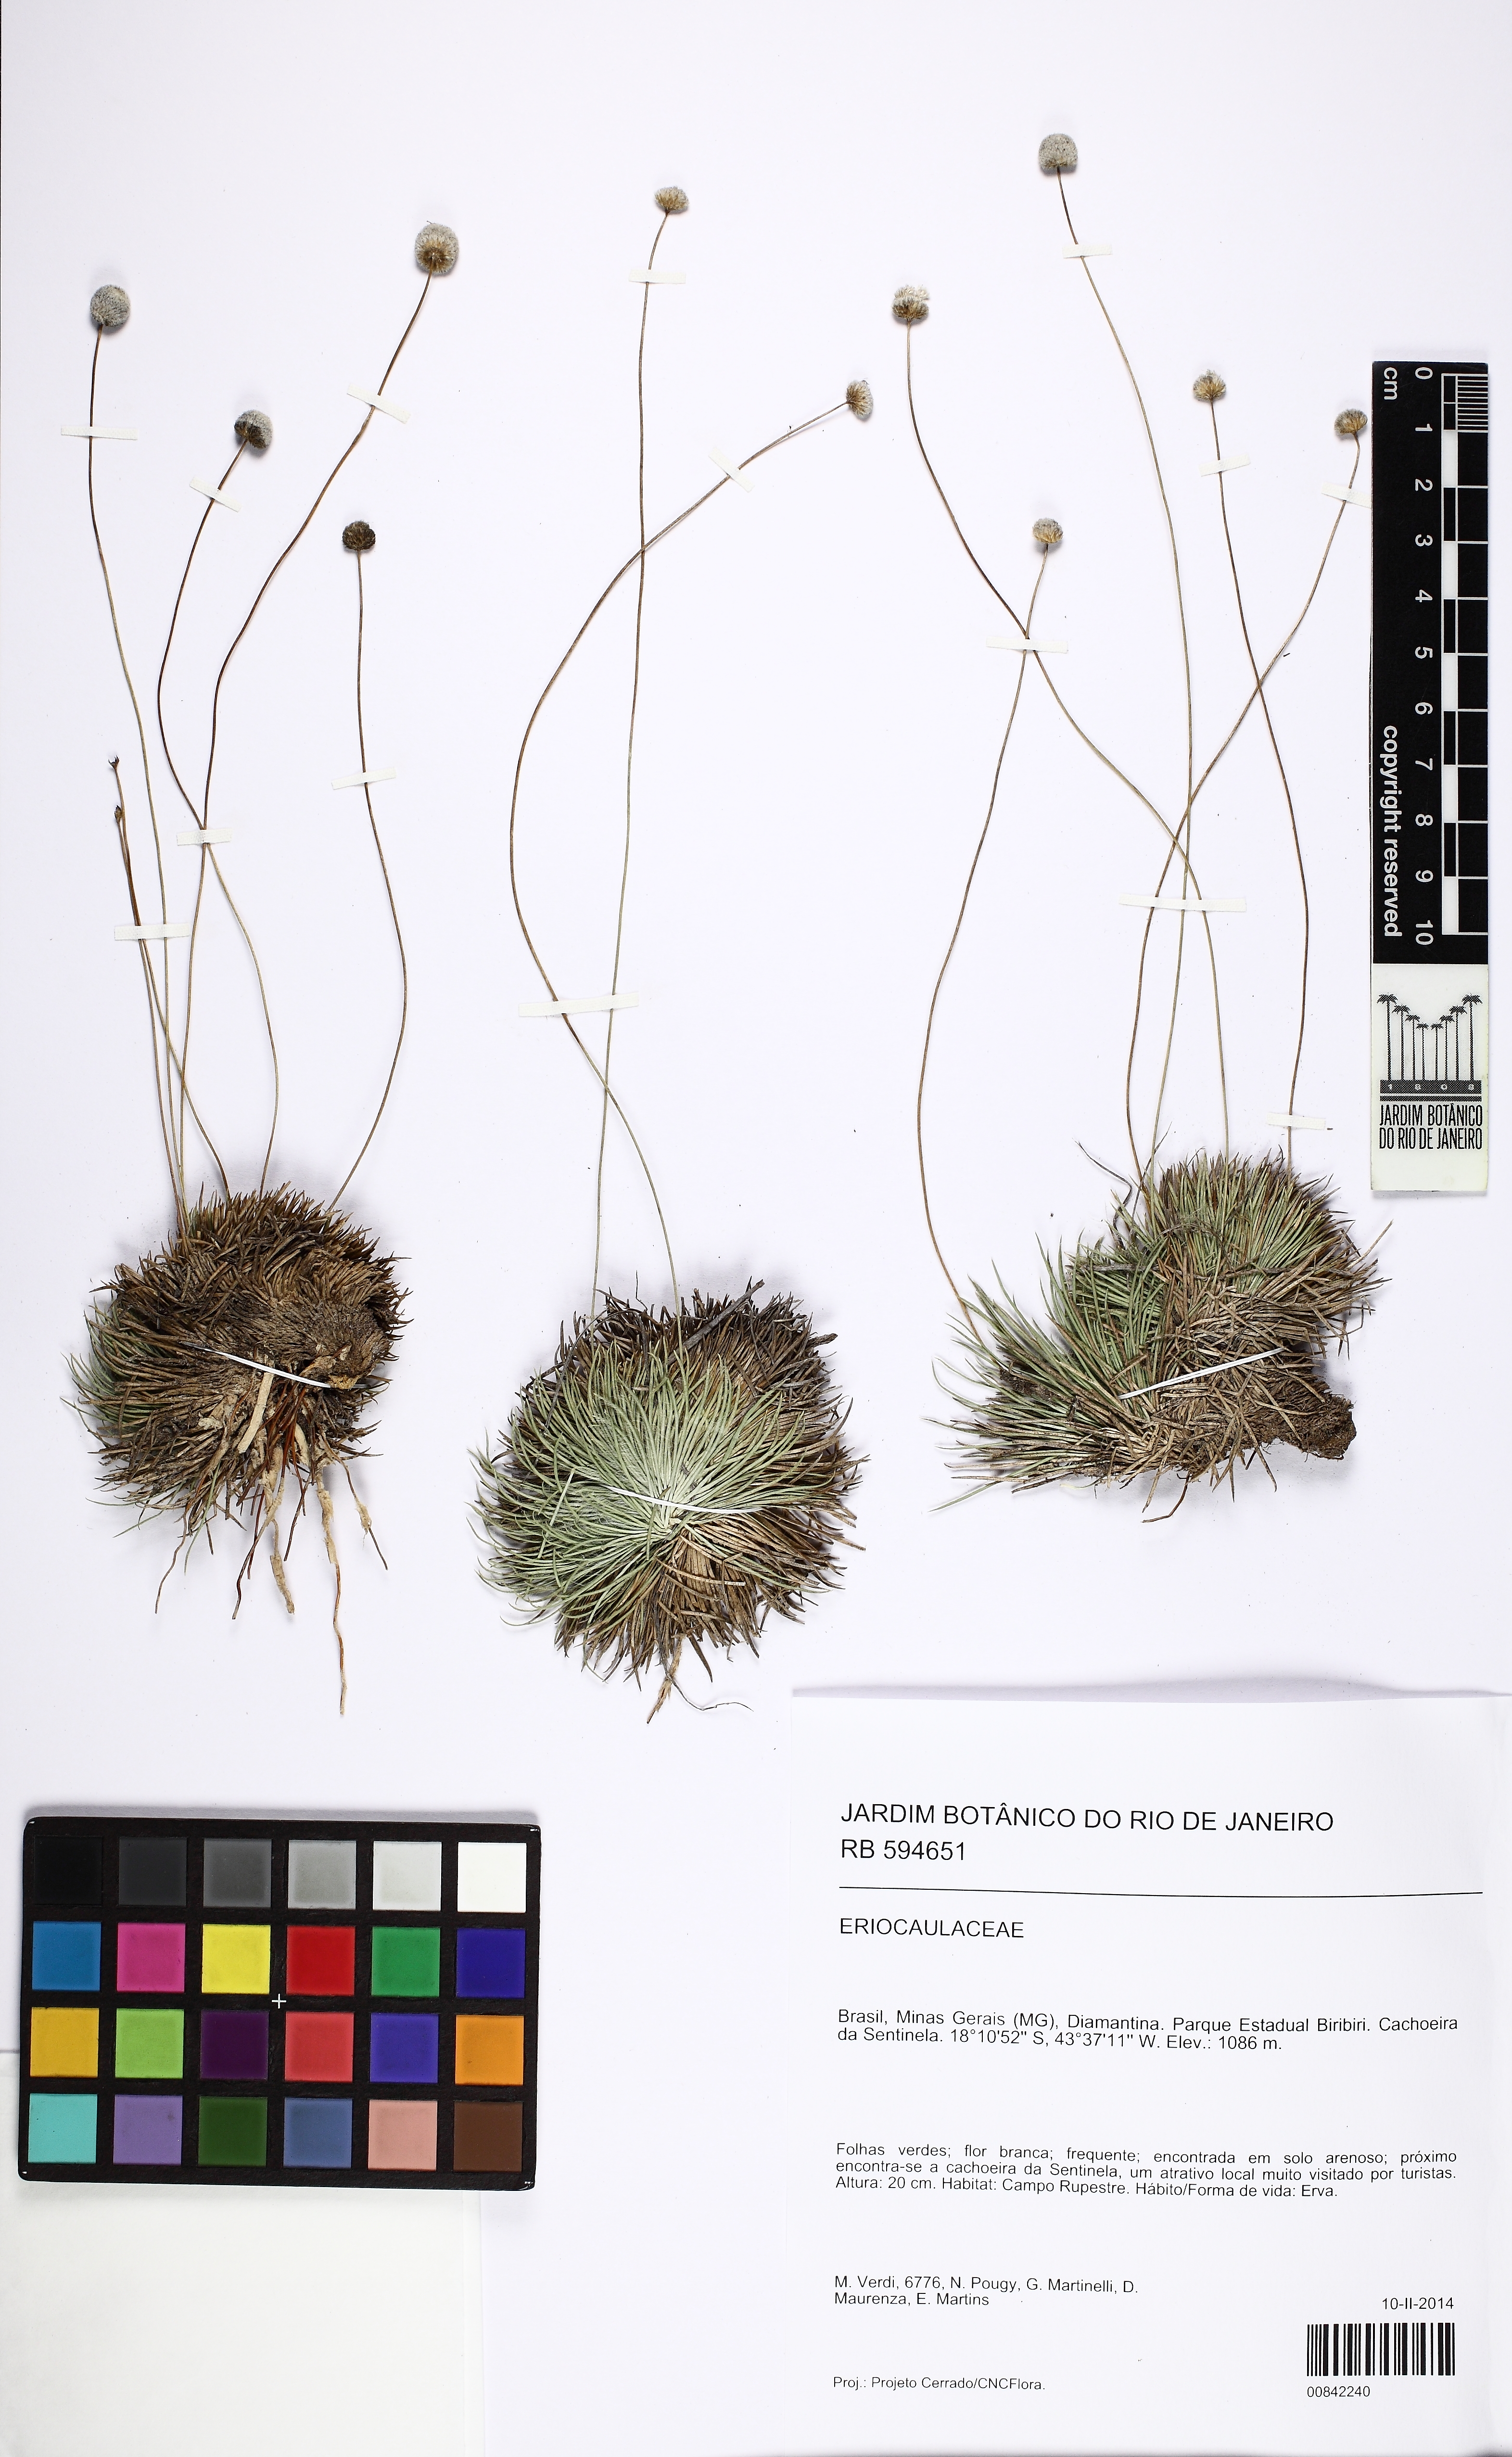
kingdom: Plantae
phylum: Tracheophyta
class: Liliopsida
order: Poales
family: Eriocaulaceae
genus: Leiothrix
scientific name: Leiothrix curvifolia
